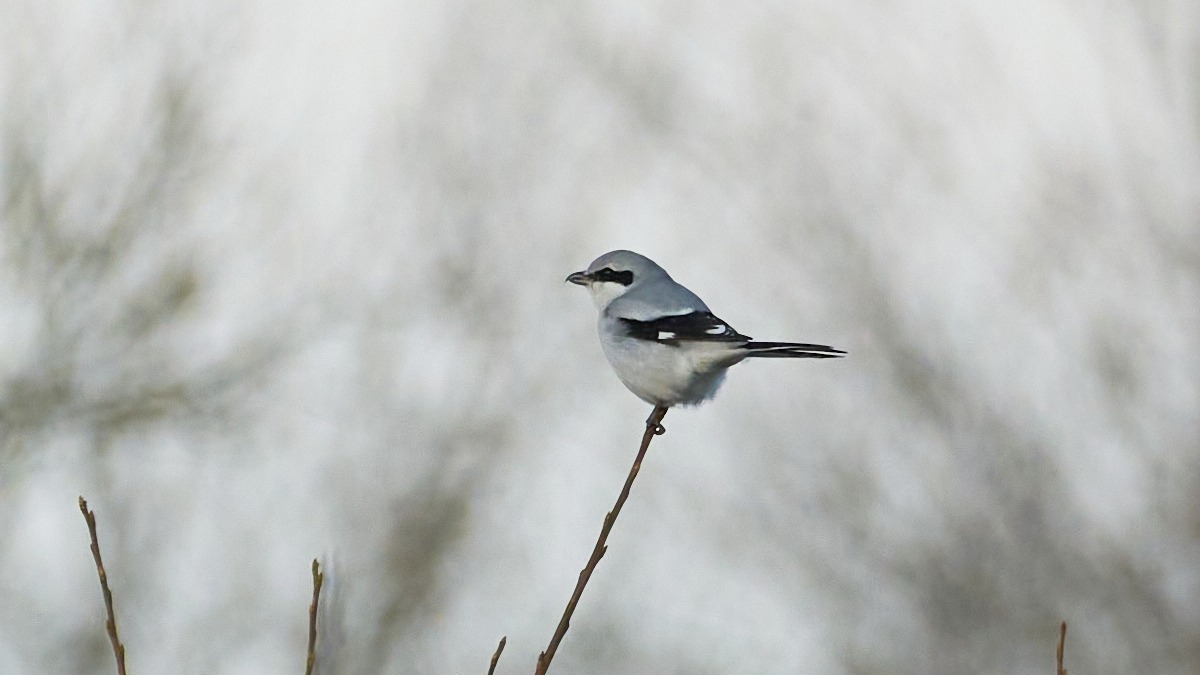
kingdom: Animalia
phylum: Chordata
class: Aves
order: Passeriformes
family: Laniidae
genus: Lanius
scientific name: Lanius excubitor
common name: Stor tornskade
